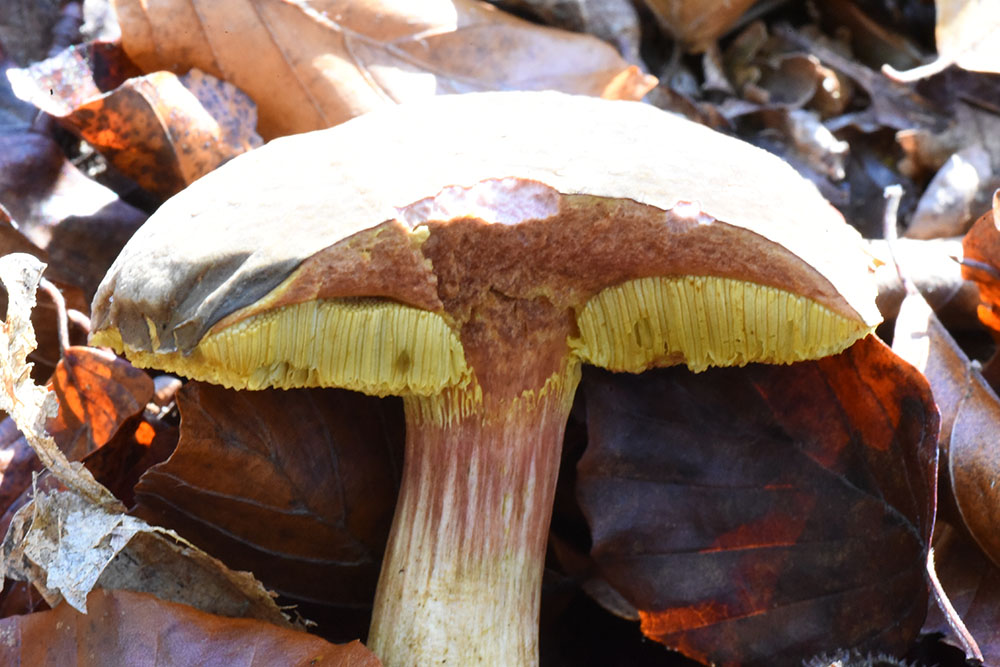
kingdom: Fungi
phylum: Basidiomycota
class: Agaricomycetes
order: Boletales
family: Boletaceae
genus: Xerocomellus
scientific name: Xerocomellus pruinatus
